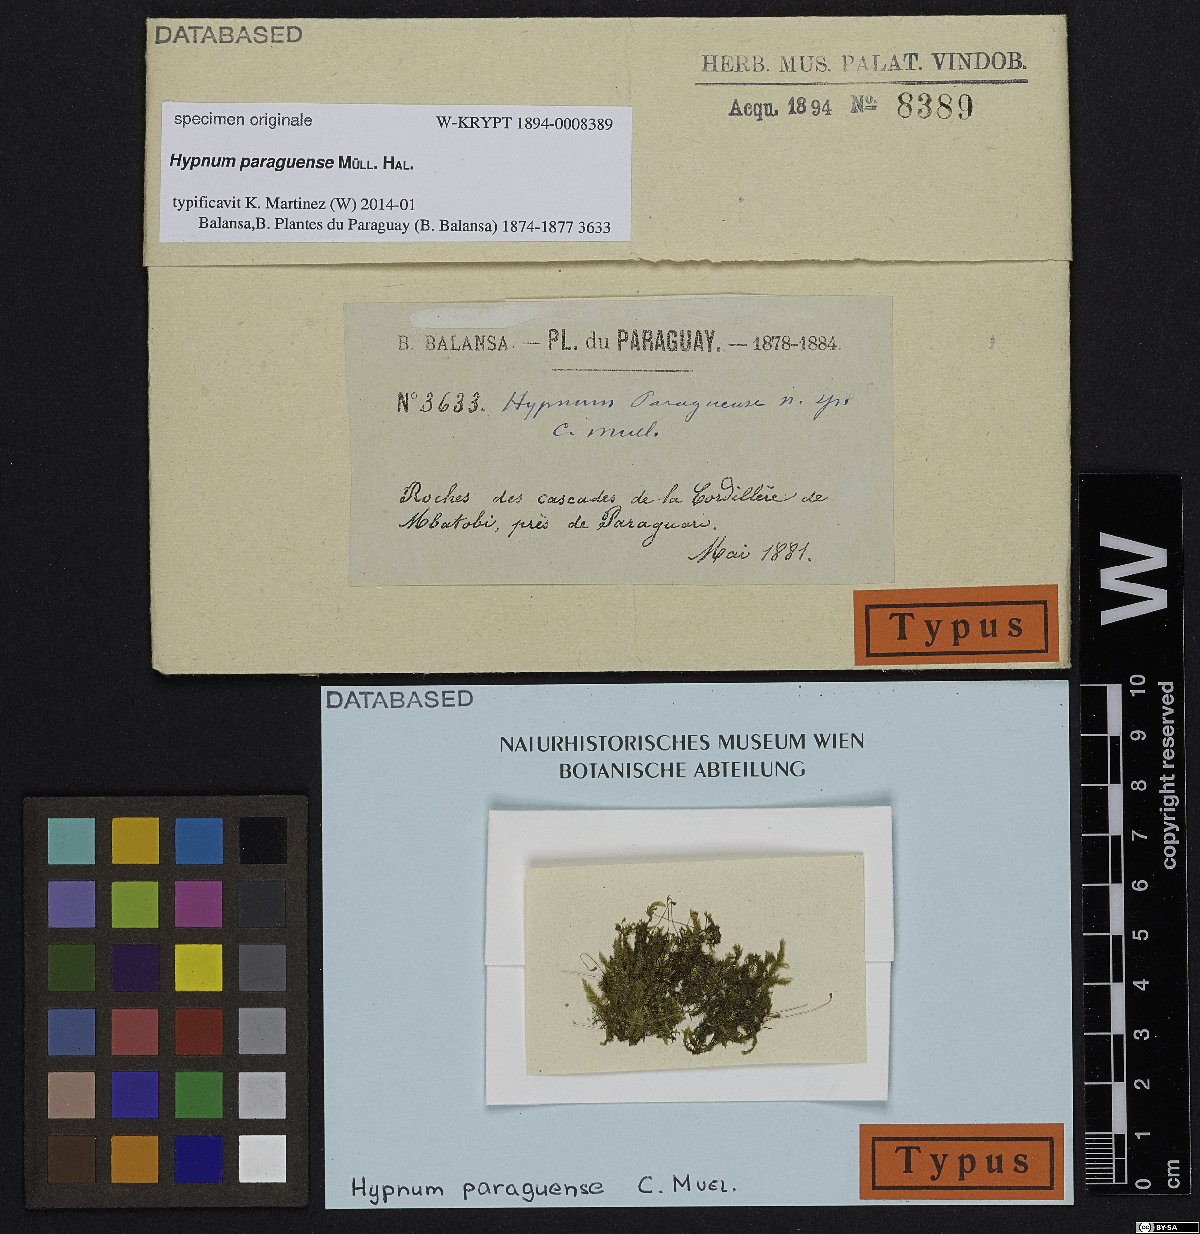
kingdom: Plantae
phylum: Bryophyta
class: Bryopsida
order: Hypnales
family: Hypnaceae
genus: Hypnum
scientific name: Hypnum
